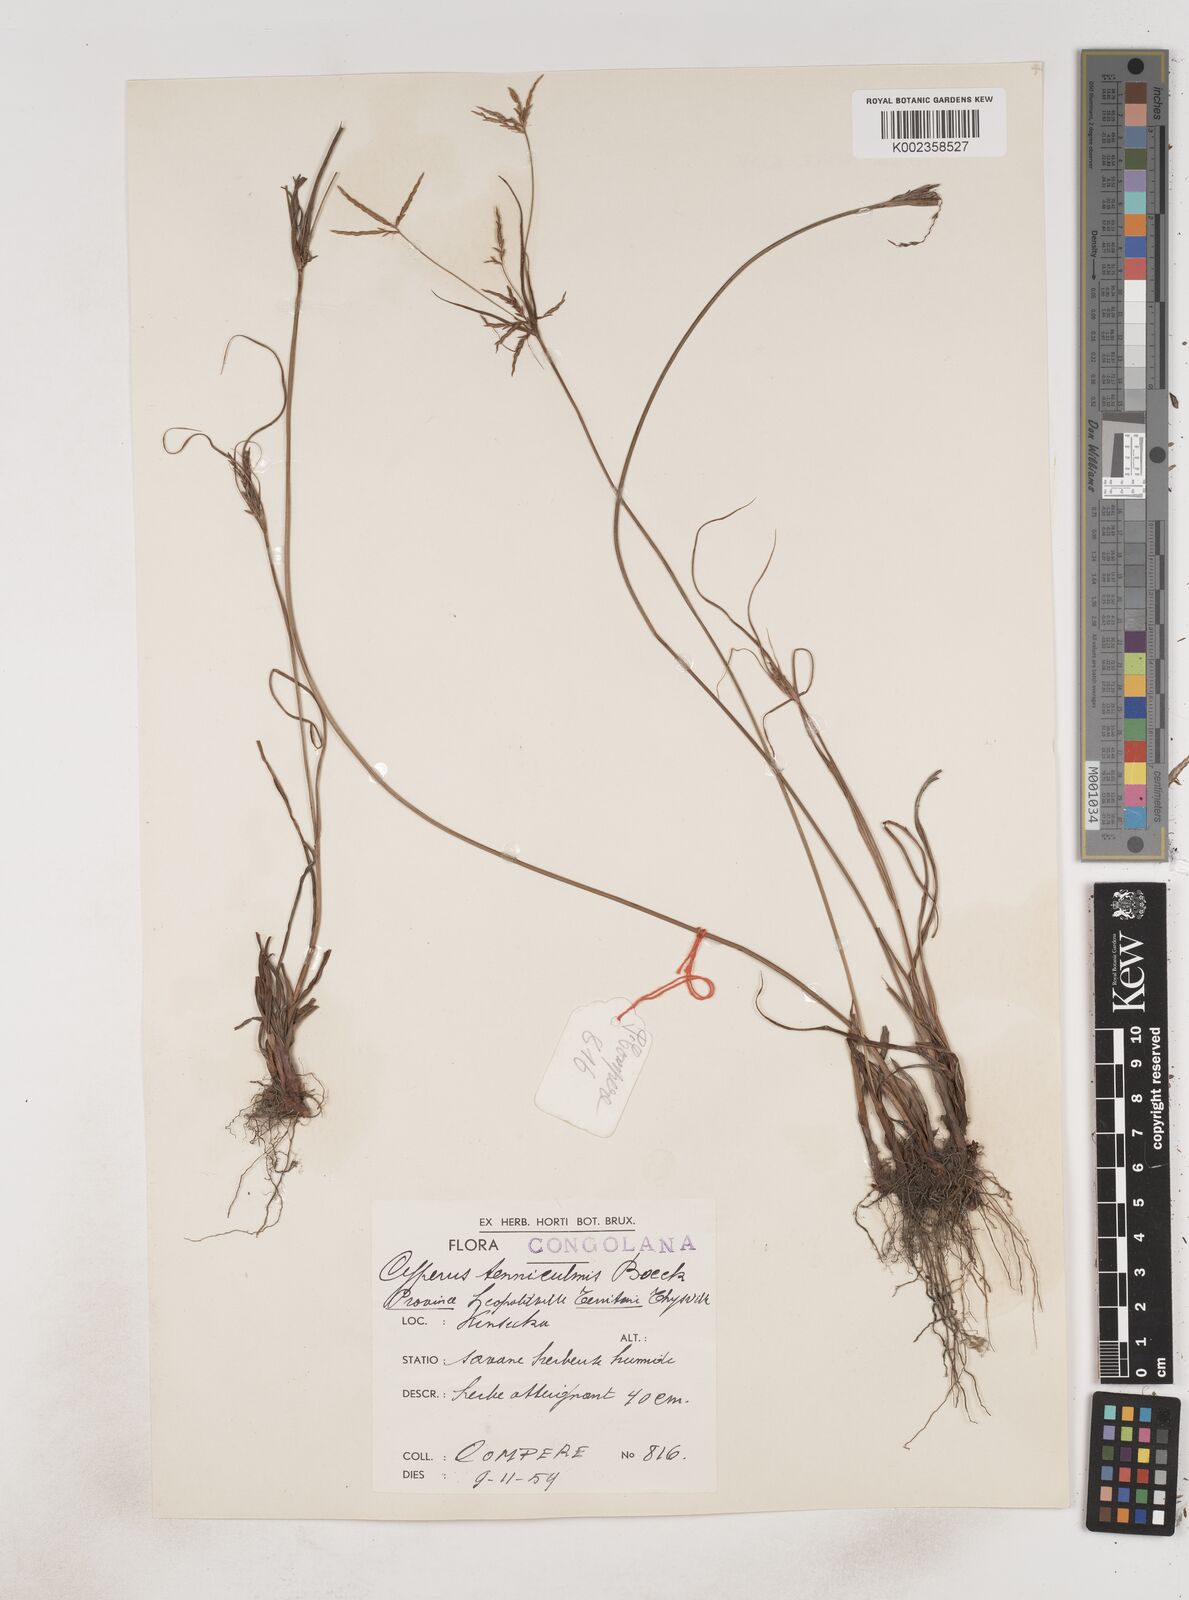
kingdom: Plantae
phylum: Tracheophyta
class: Liliopsida
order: Poales
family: Cyperaceae
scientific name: Cyperaceae
